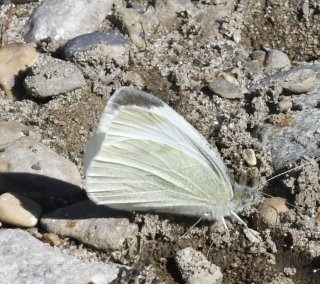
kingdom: Animalia
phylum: Arthropoda
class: Insecta
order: Lepidoptera
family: Pieridae
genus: Pieris
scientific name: Pieris rapae
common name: Cabbage White
